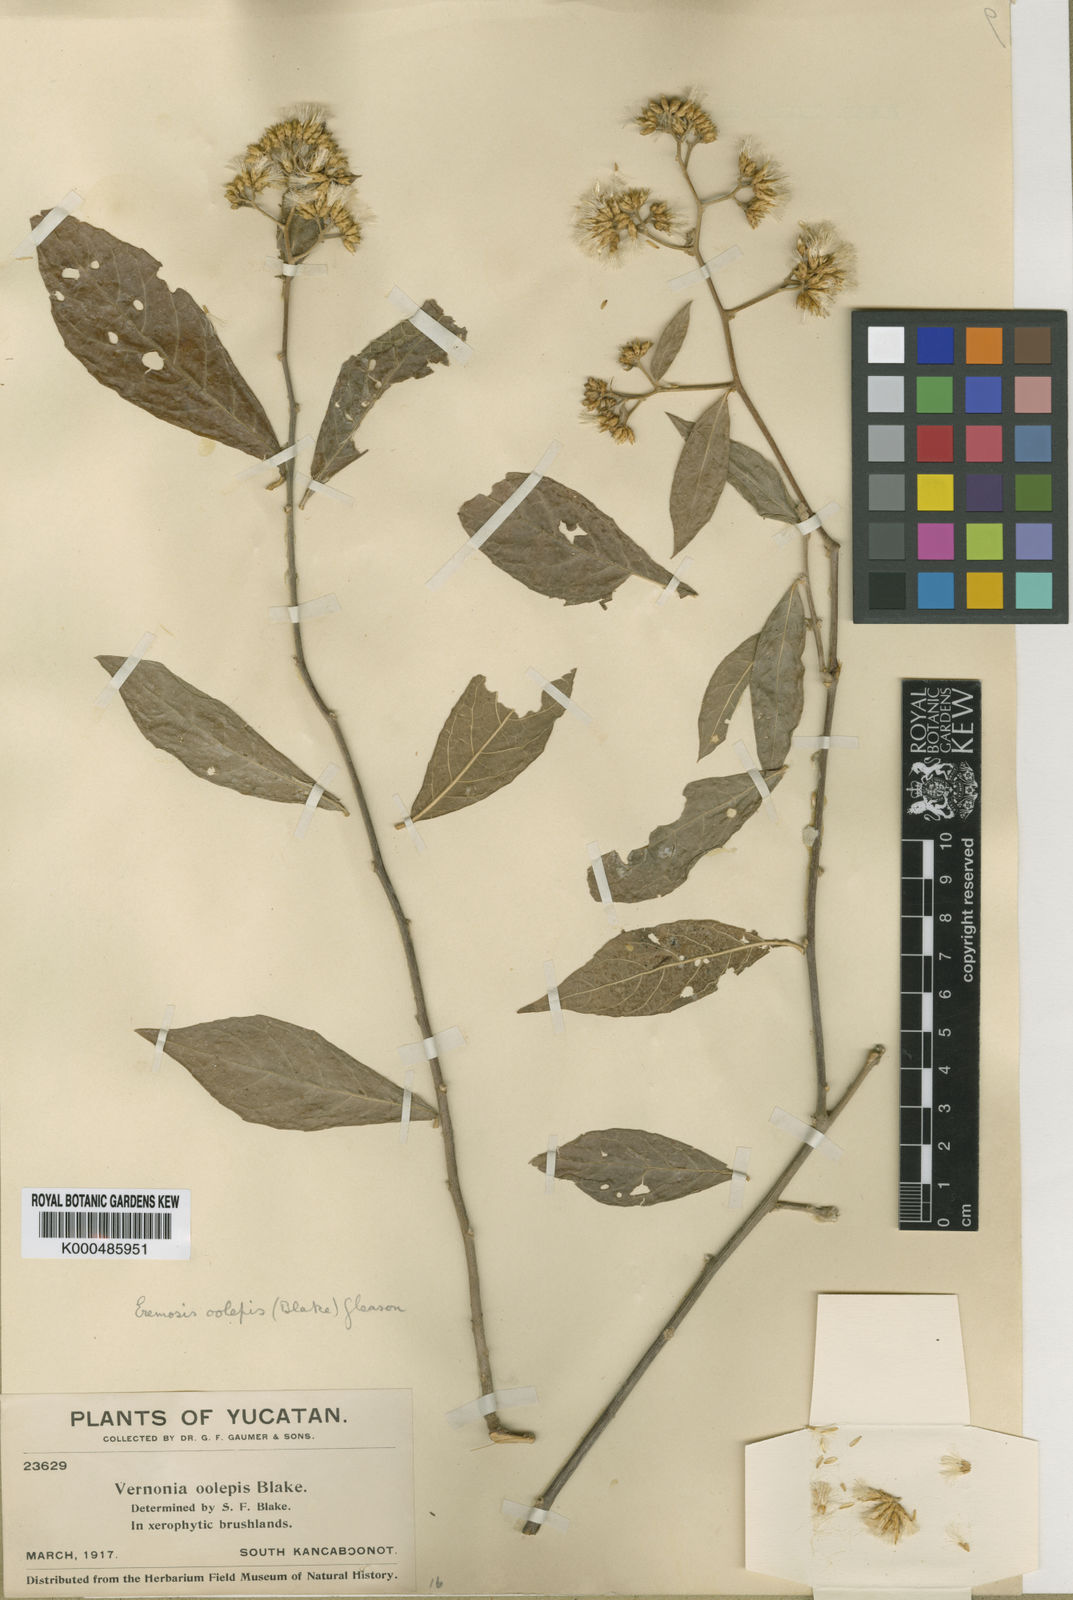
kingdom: Plantae
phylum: Tracheophyta
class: Magnoliopsida
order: Asterales
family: Asteraceae
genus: Eremosis
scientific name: Eremosis oolepis
